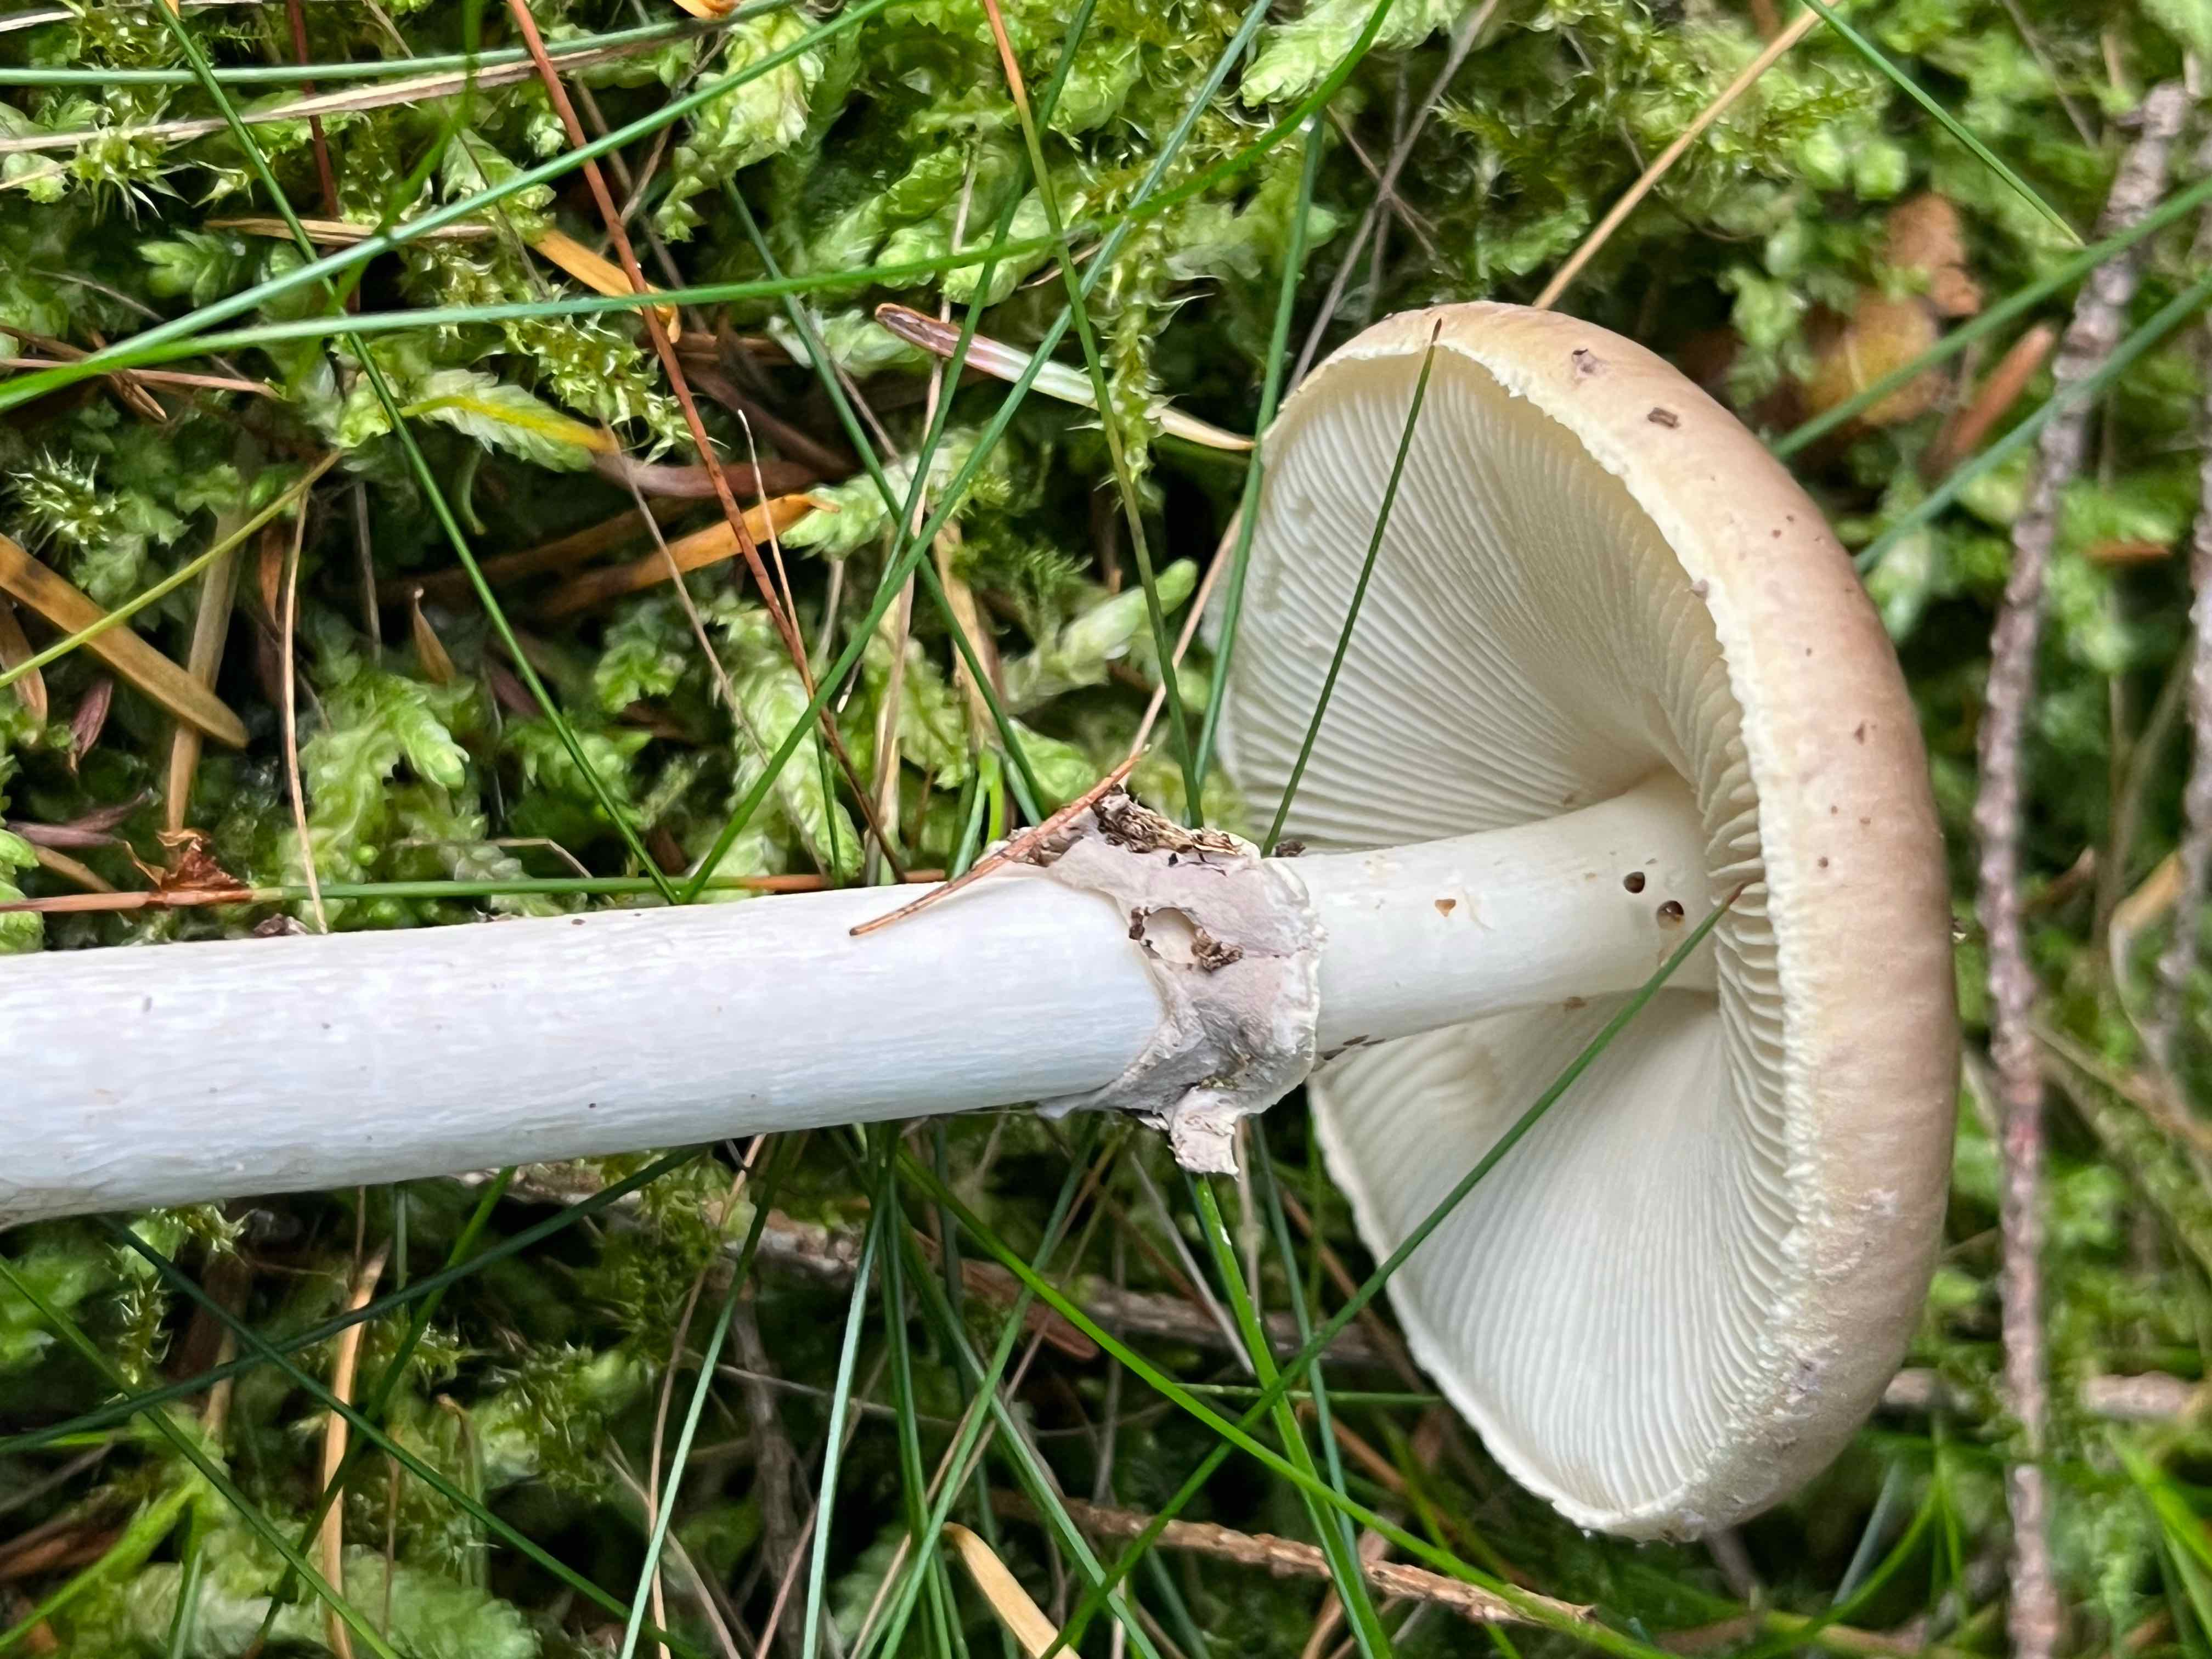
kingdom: Fungi
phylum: Basidiomycota
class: Agaricomycetes
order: Agaricales
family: Amanitaceae
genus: Amanita
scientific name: Amanita porphyria
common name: porfyr-fluesvamp
